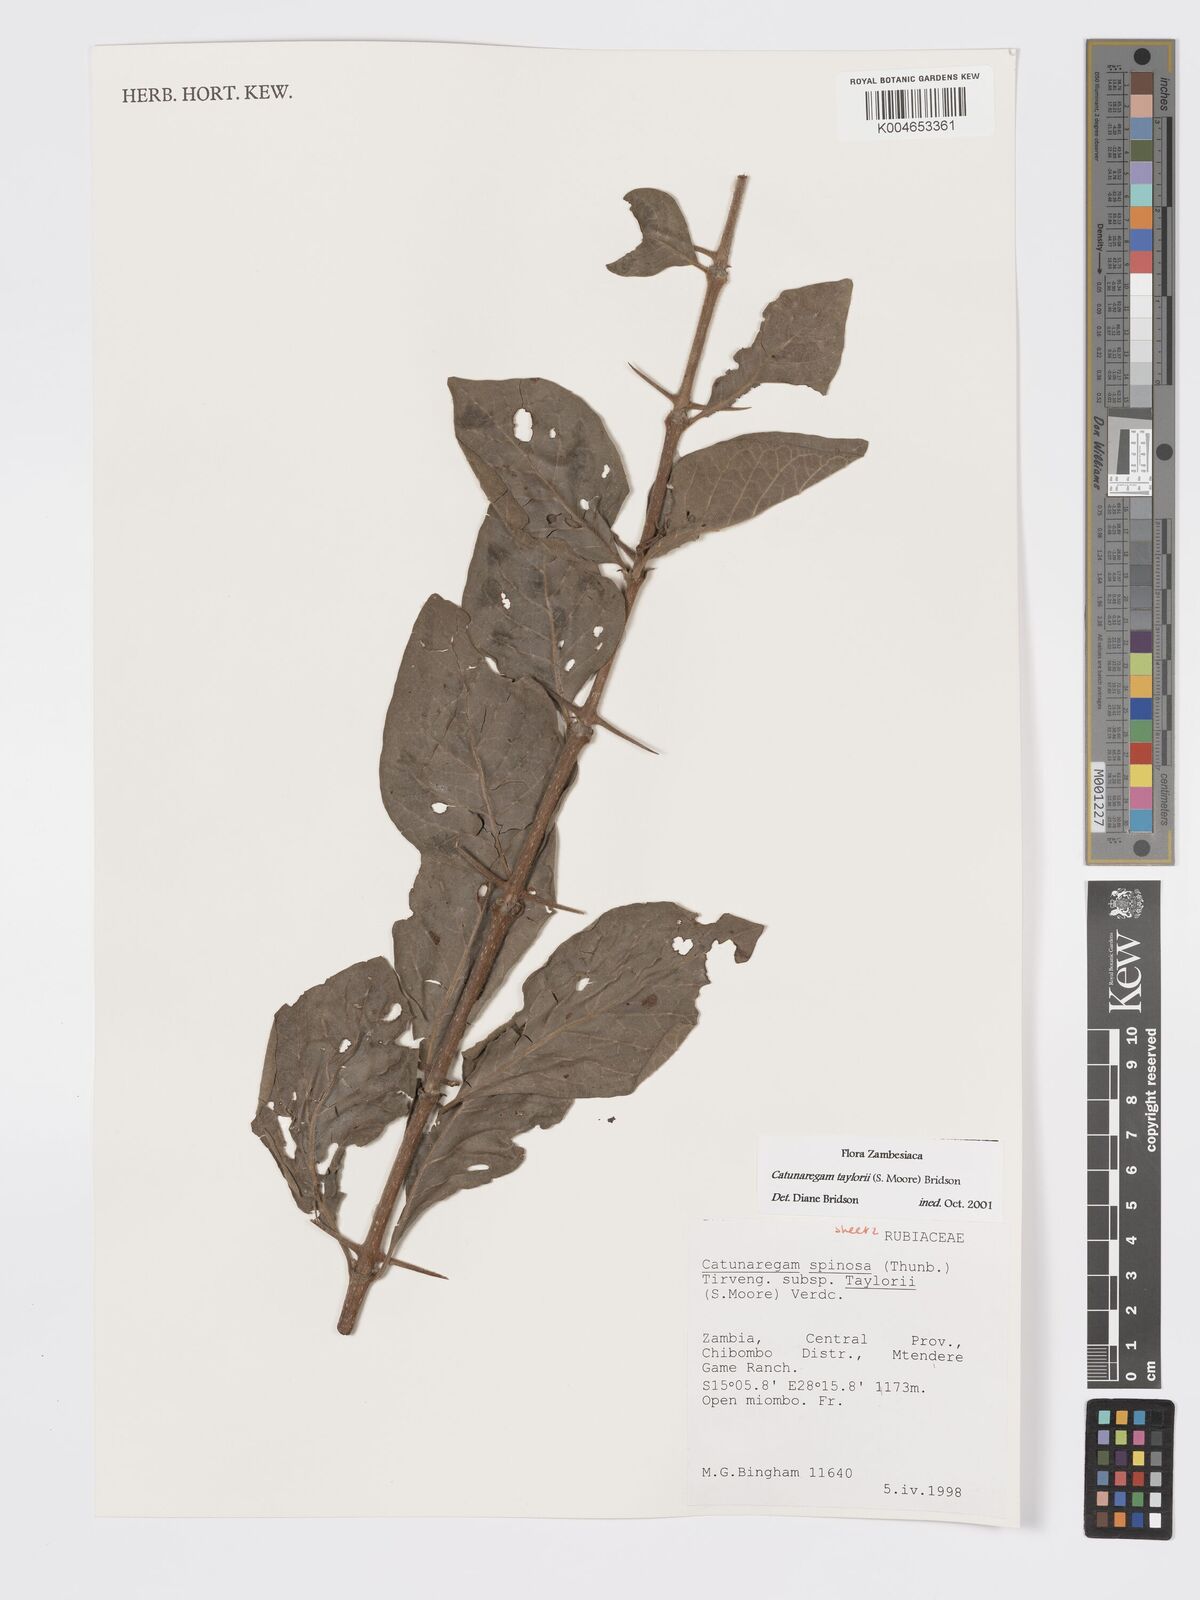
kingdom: Plantae
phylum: Tracheophyta
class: Magnoliopsida
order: Gentianales
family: Rubiaceae
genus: Catunaregam
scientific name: Catunaregam taylorii
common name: Miombo bone-apple
